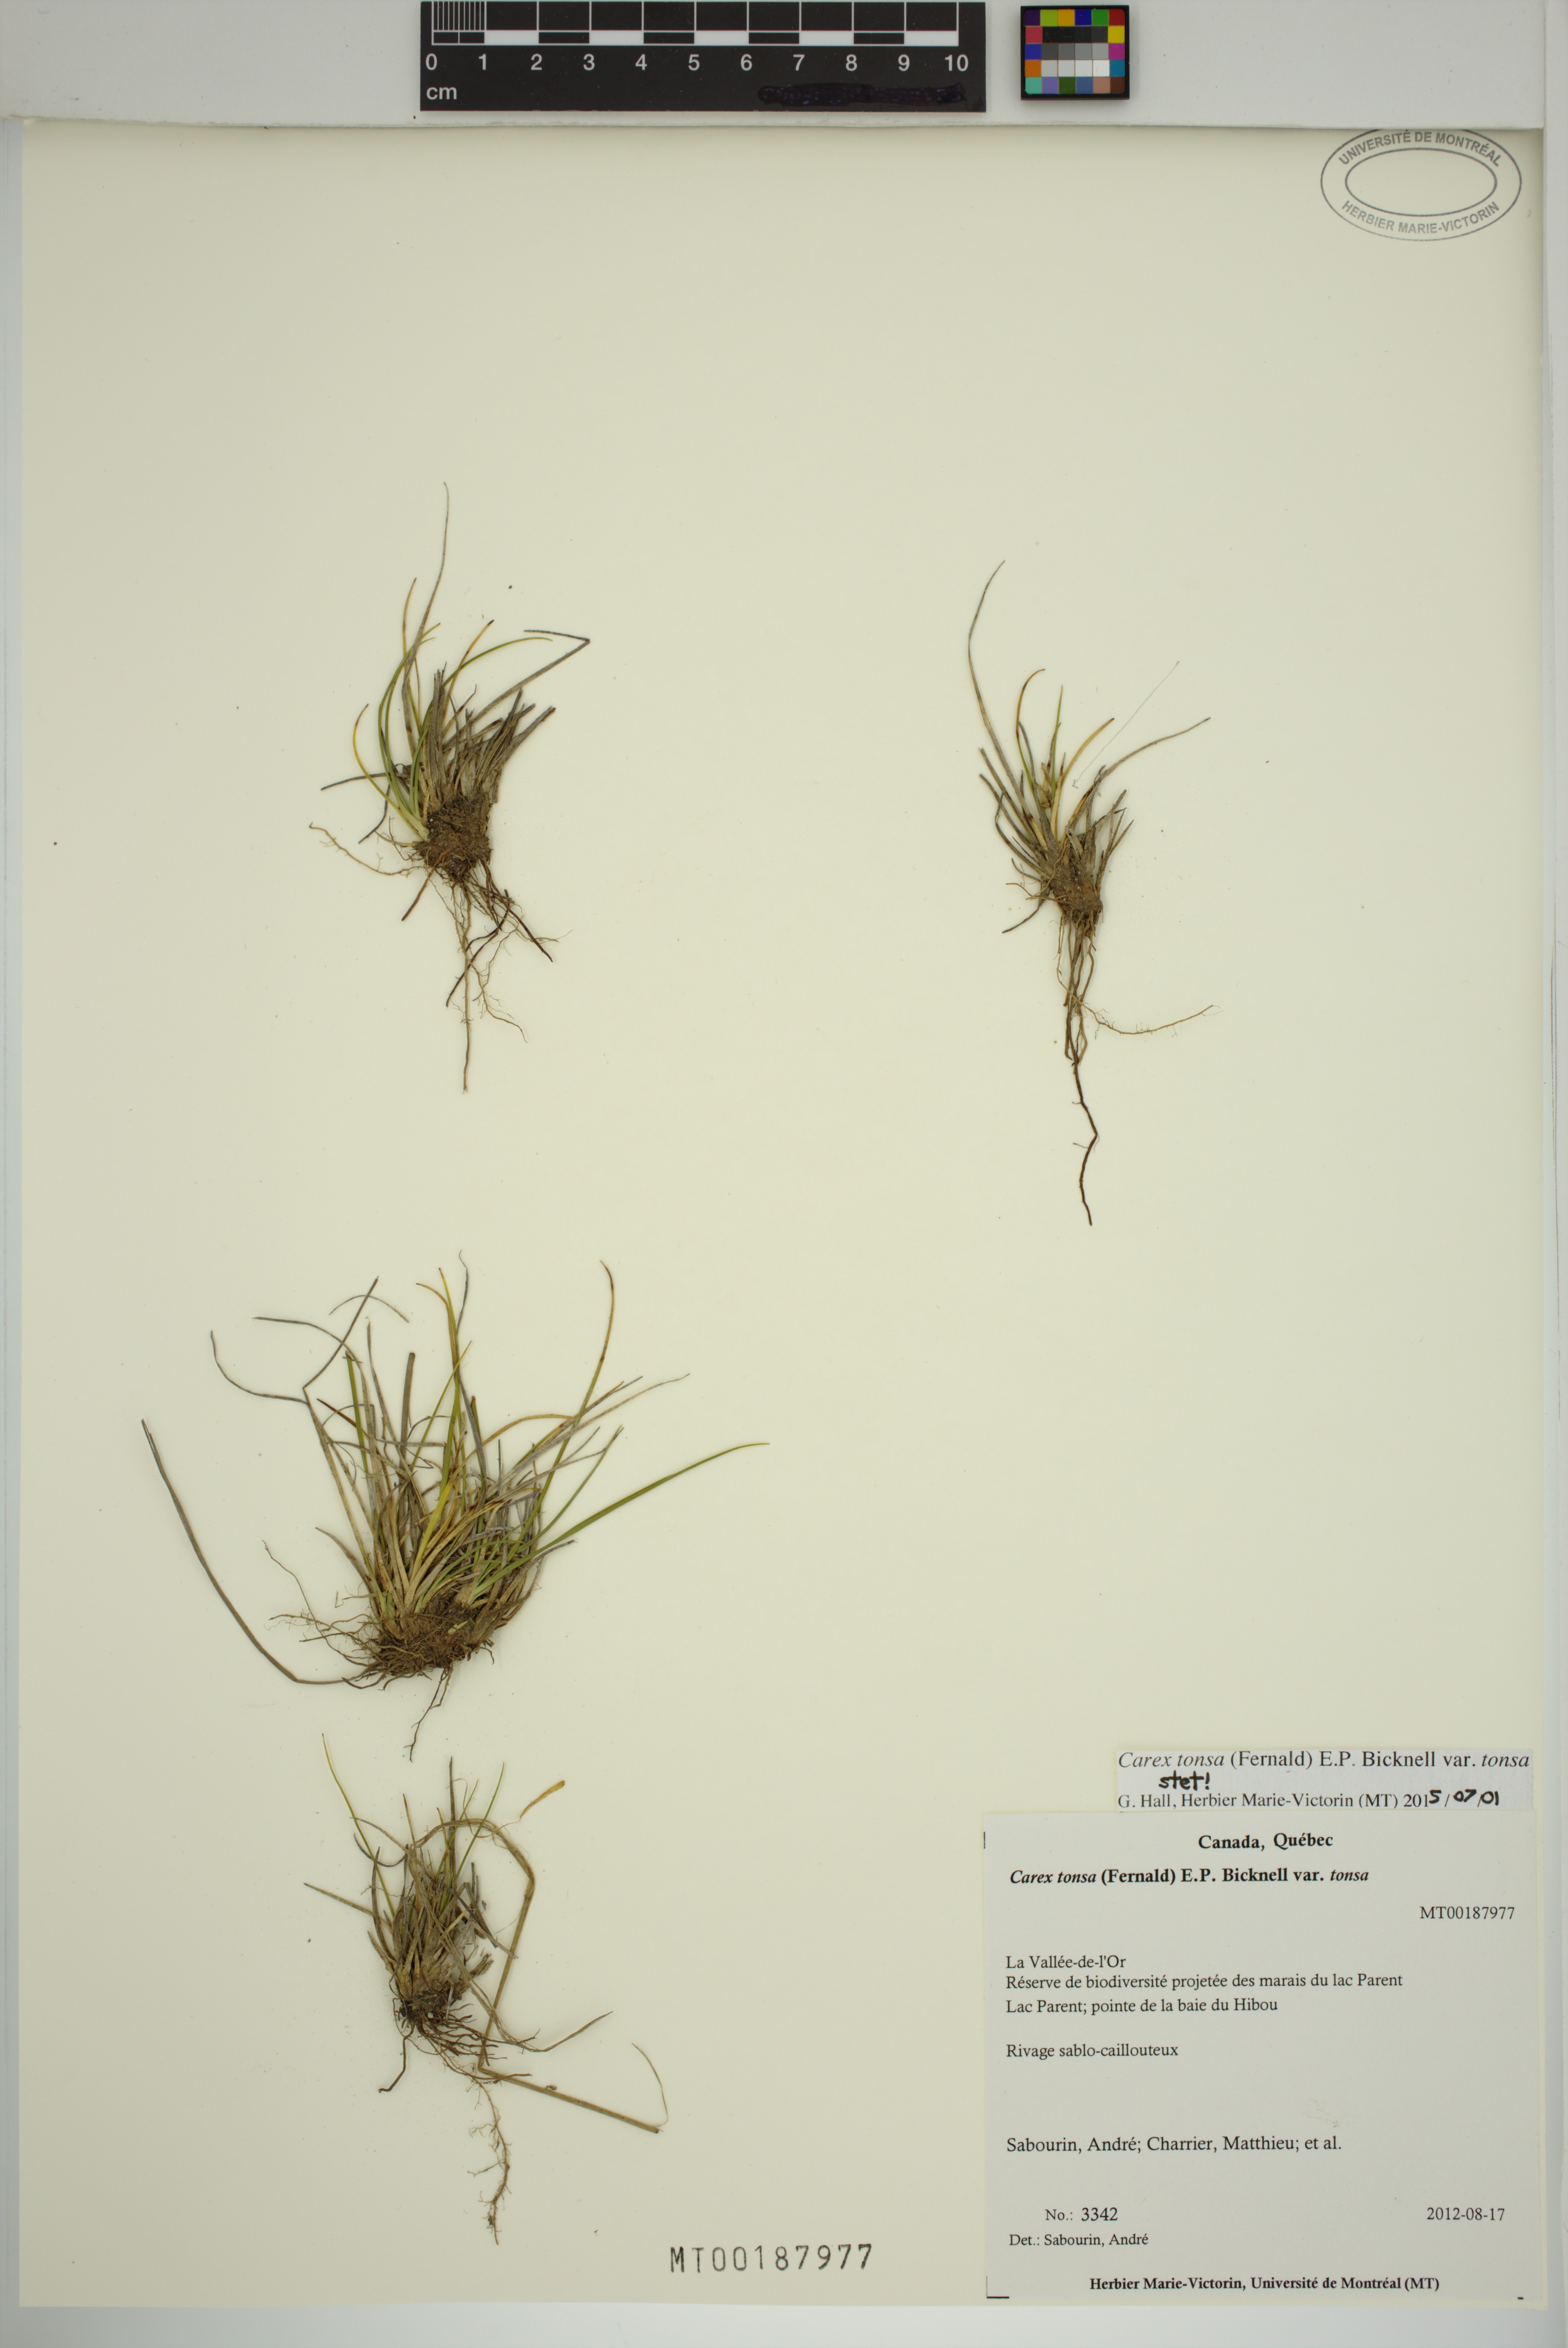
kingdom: Plantae
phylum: Tracheophyta
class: Liliopsida
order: Poales
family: Cyperaceae
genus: Carex
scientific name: Carex tonsa
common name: Bald sedge
